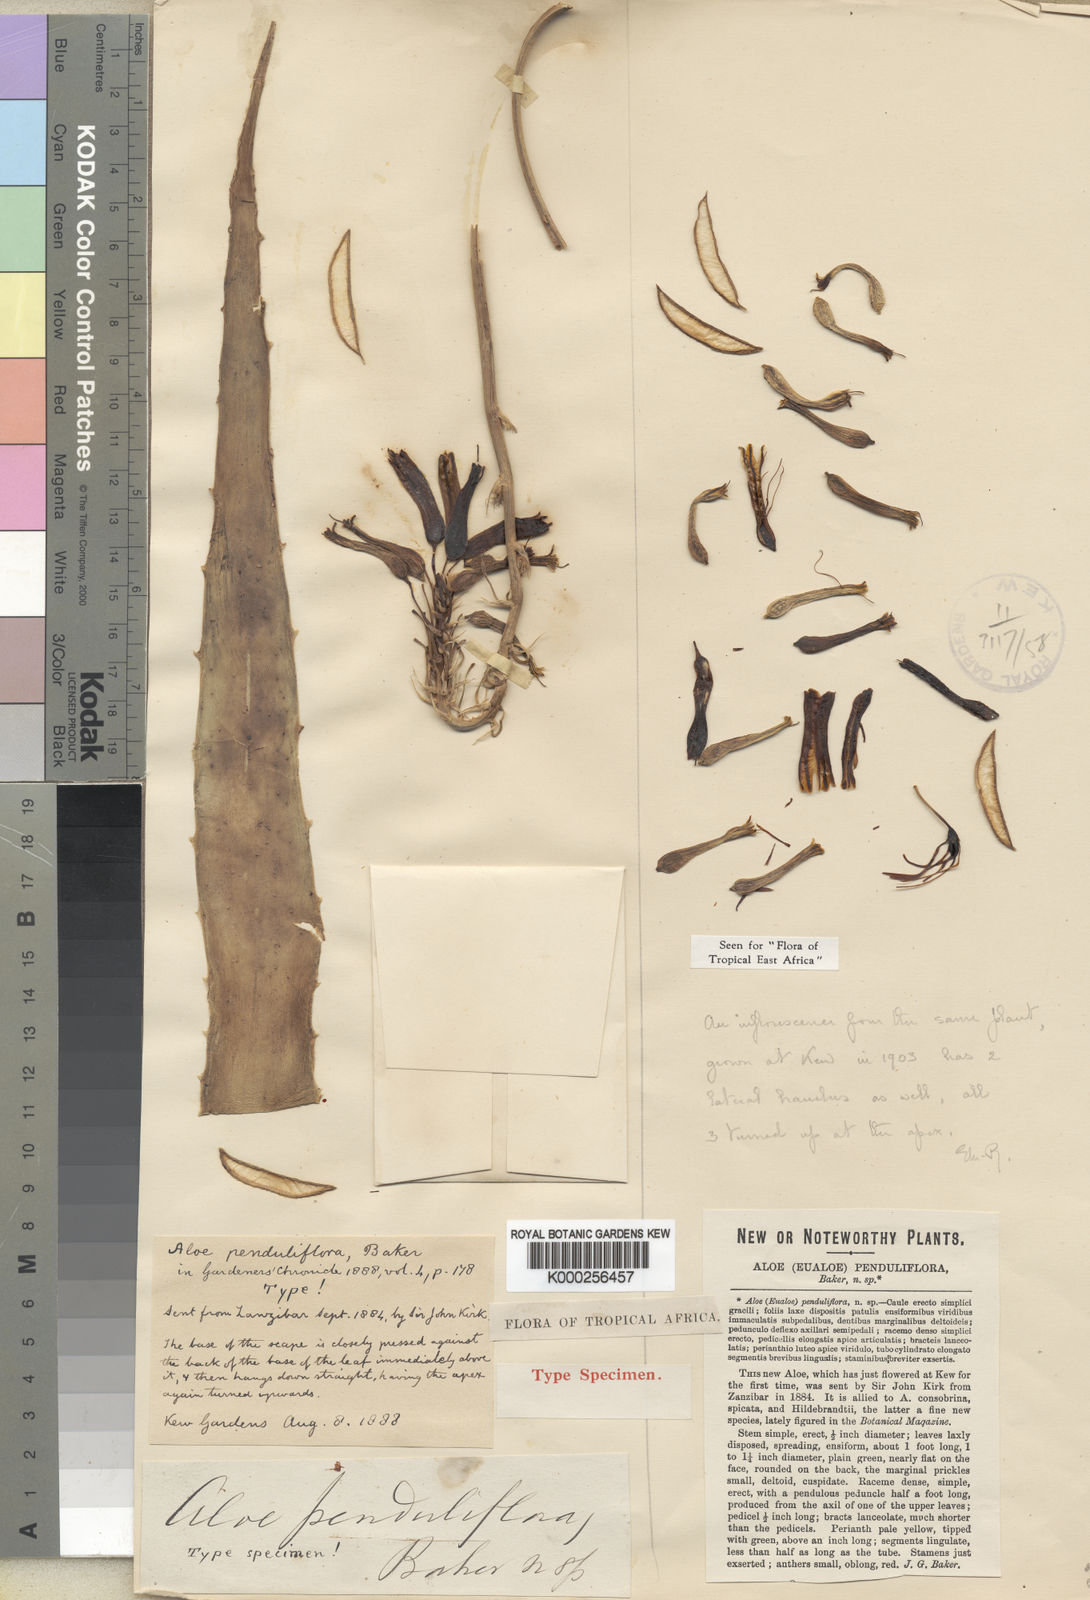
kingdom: Plantae
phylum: Tracheophyta
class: Liliopsida
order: Asparagales
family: Asphodelaceae
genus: Aloe
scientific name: Aloe penduliflora
